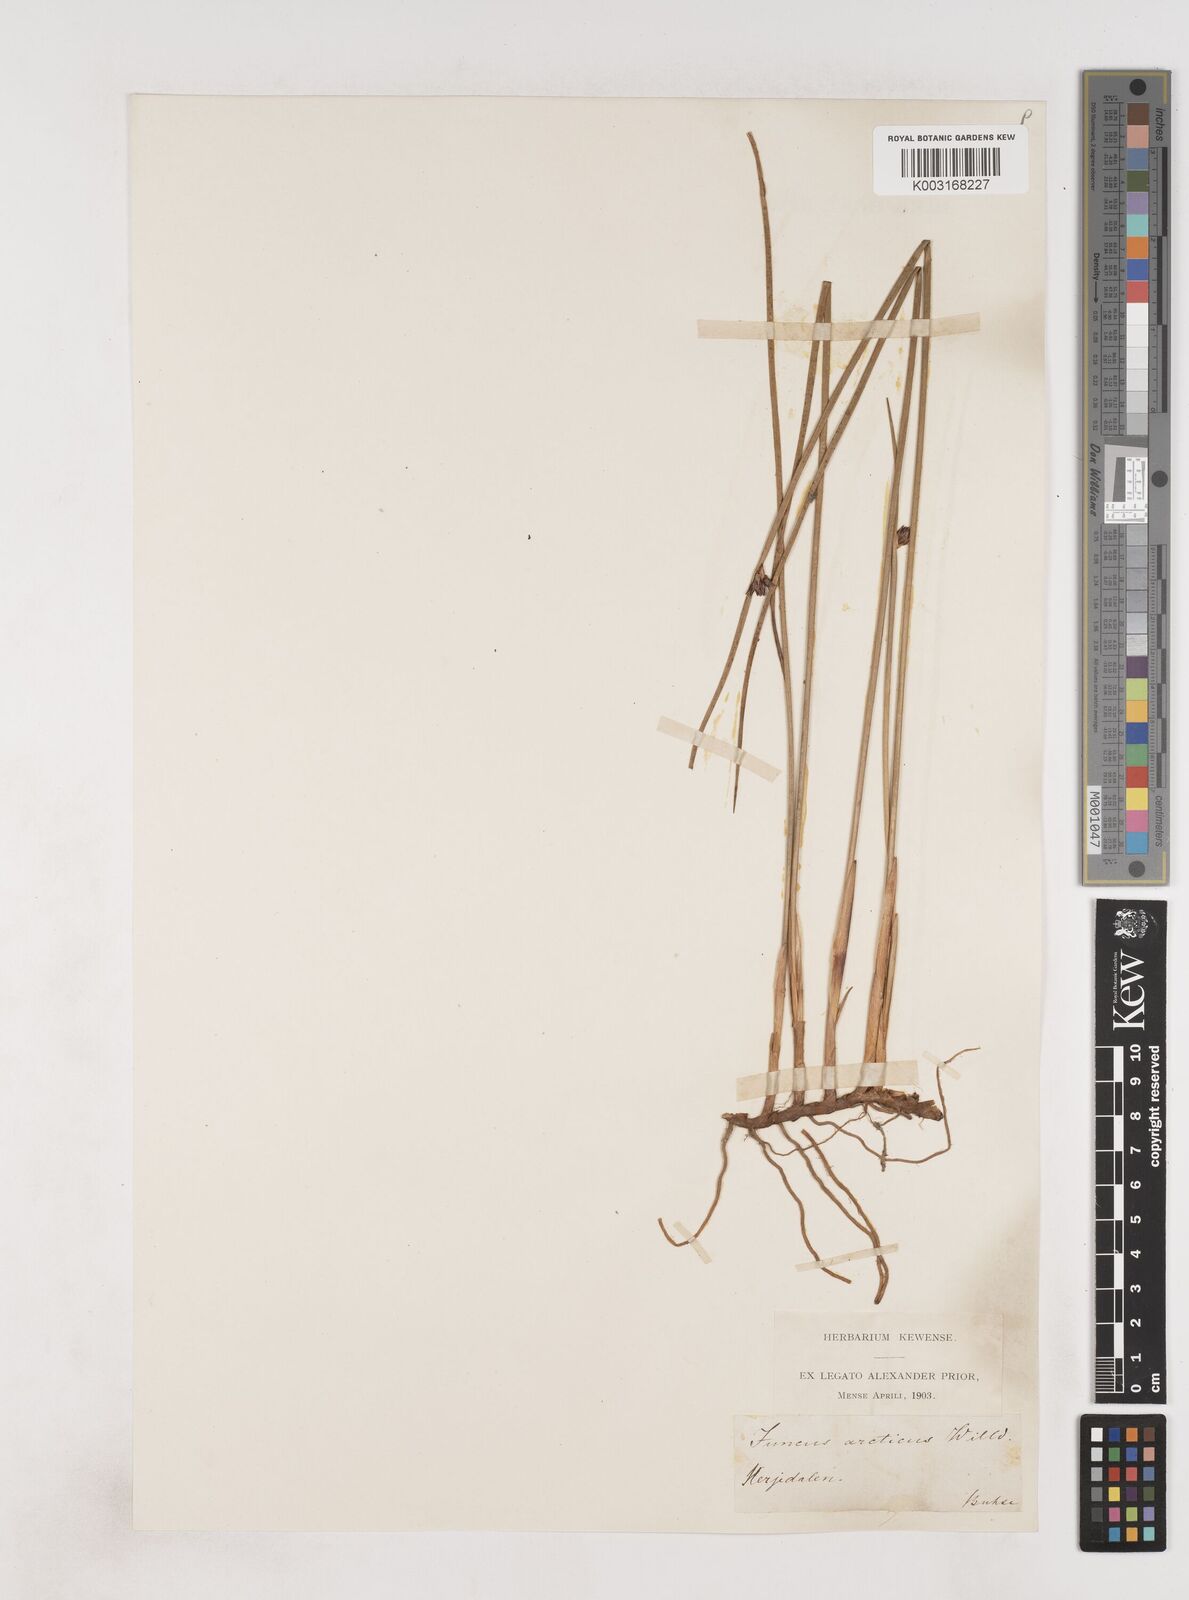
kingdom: Plantae
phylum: Tracheophyta
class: Liliopsida
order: Poales
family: Juncaceae
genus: Juncus
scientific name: Juncus arcticus
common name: Arctic rush
